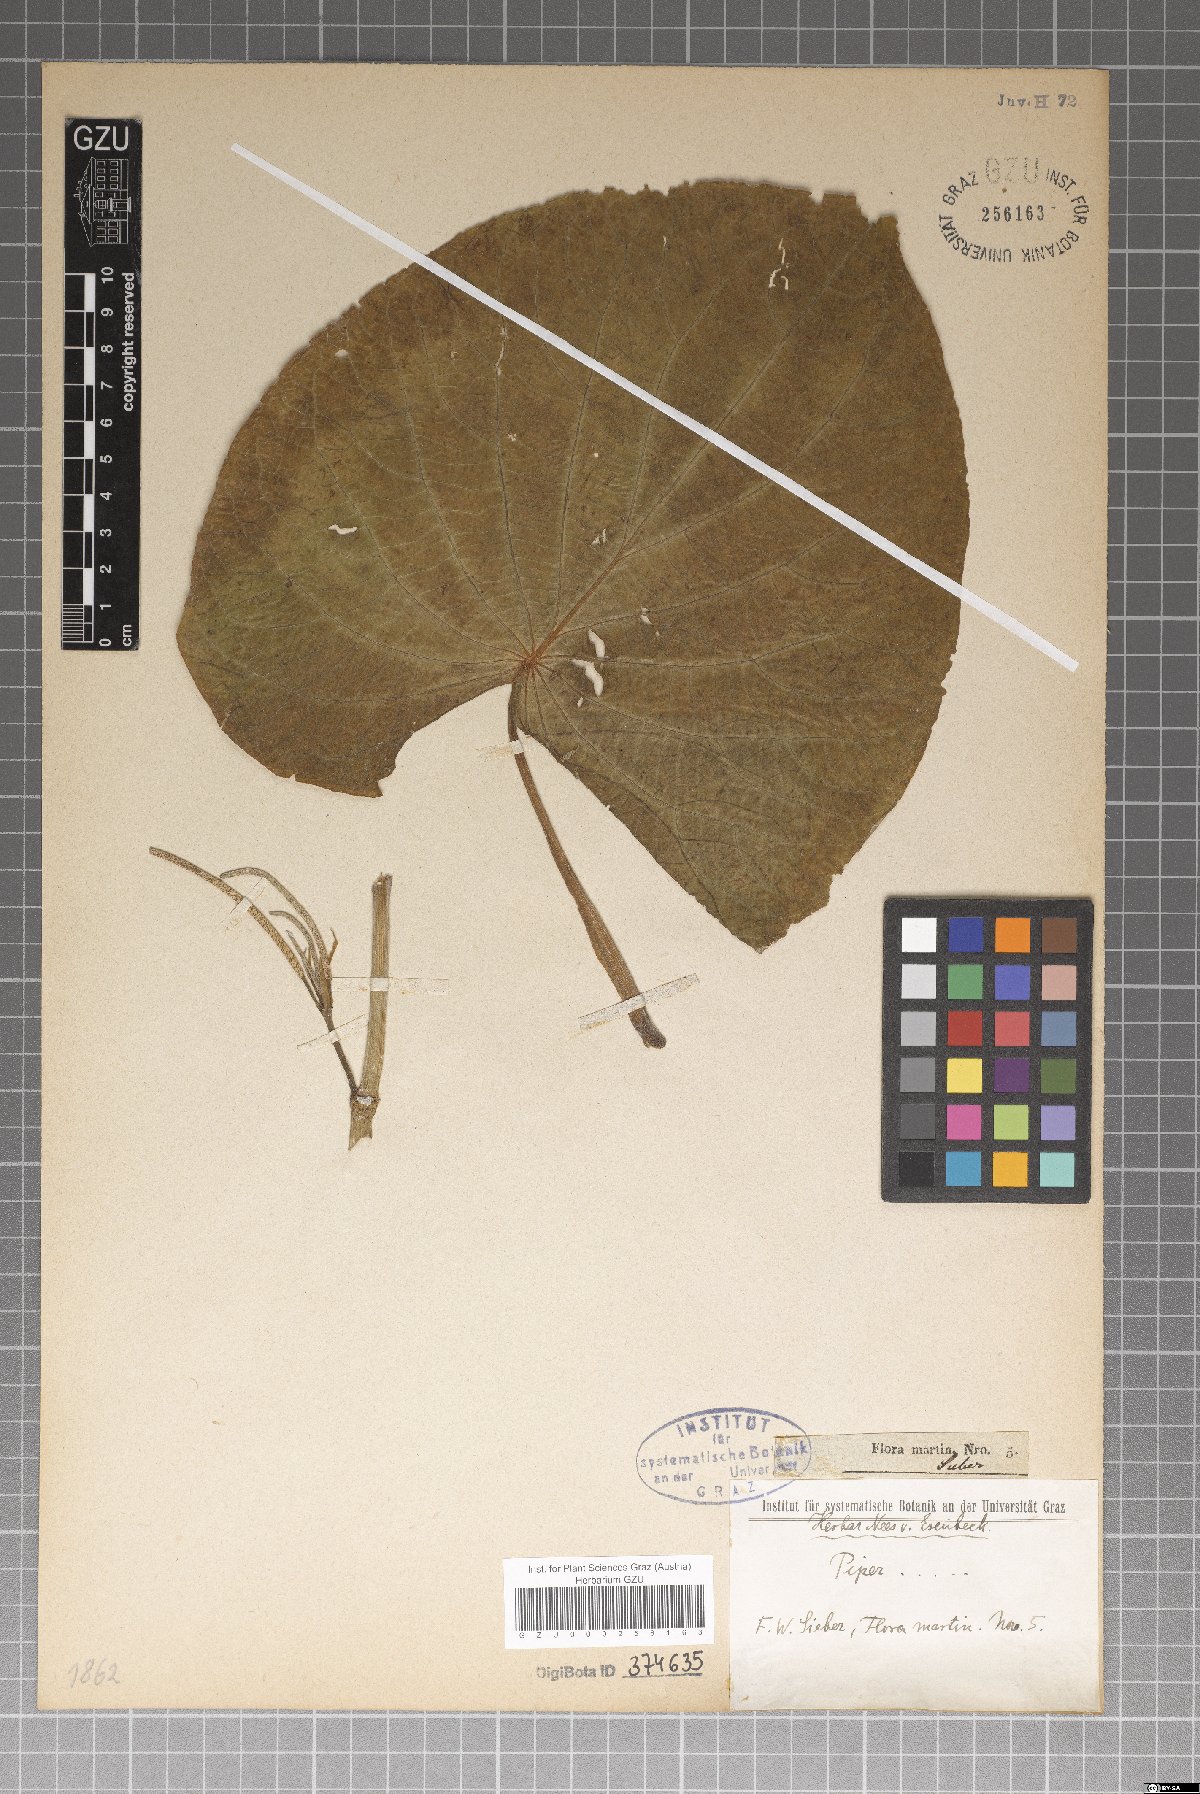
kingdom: Plantae
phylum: Tracheophyta
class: Magnoliopsida
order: Piperales
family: Piperaceae
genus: Piper
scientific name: Piper
